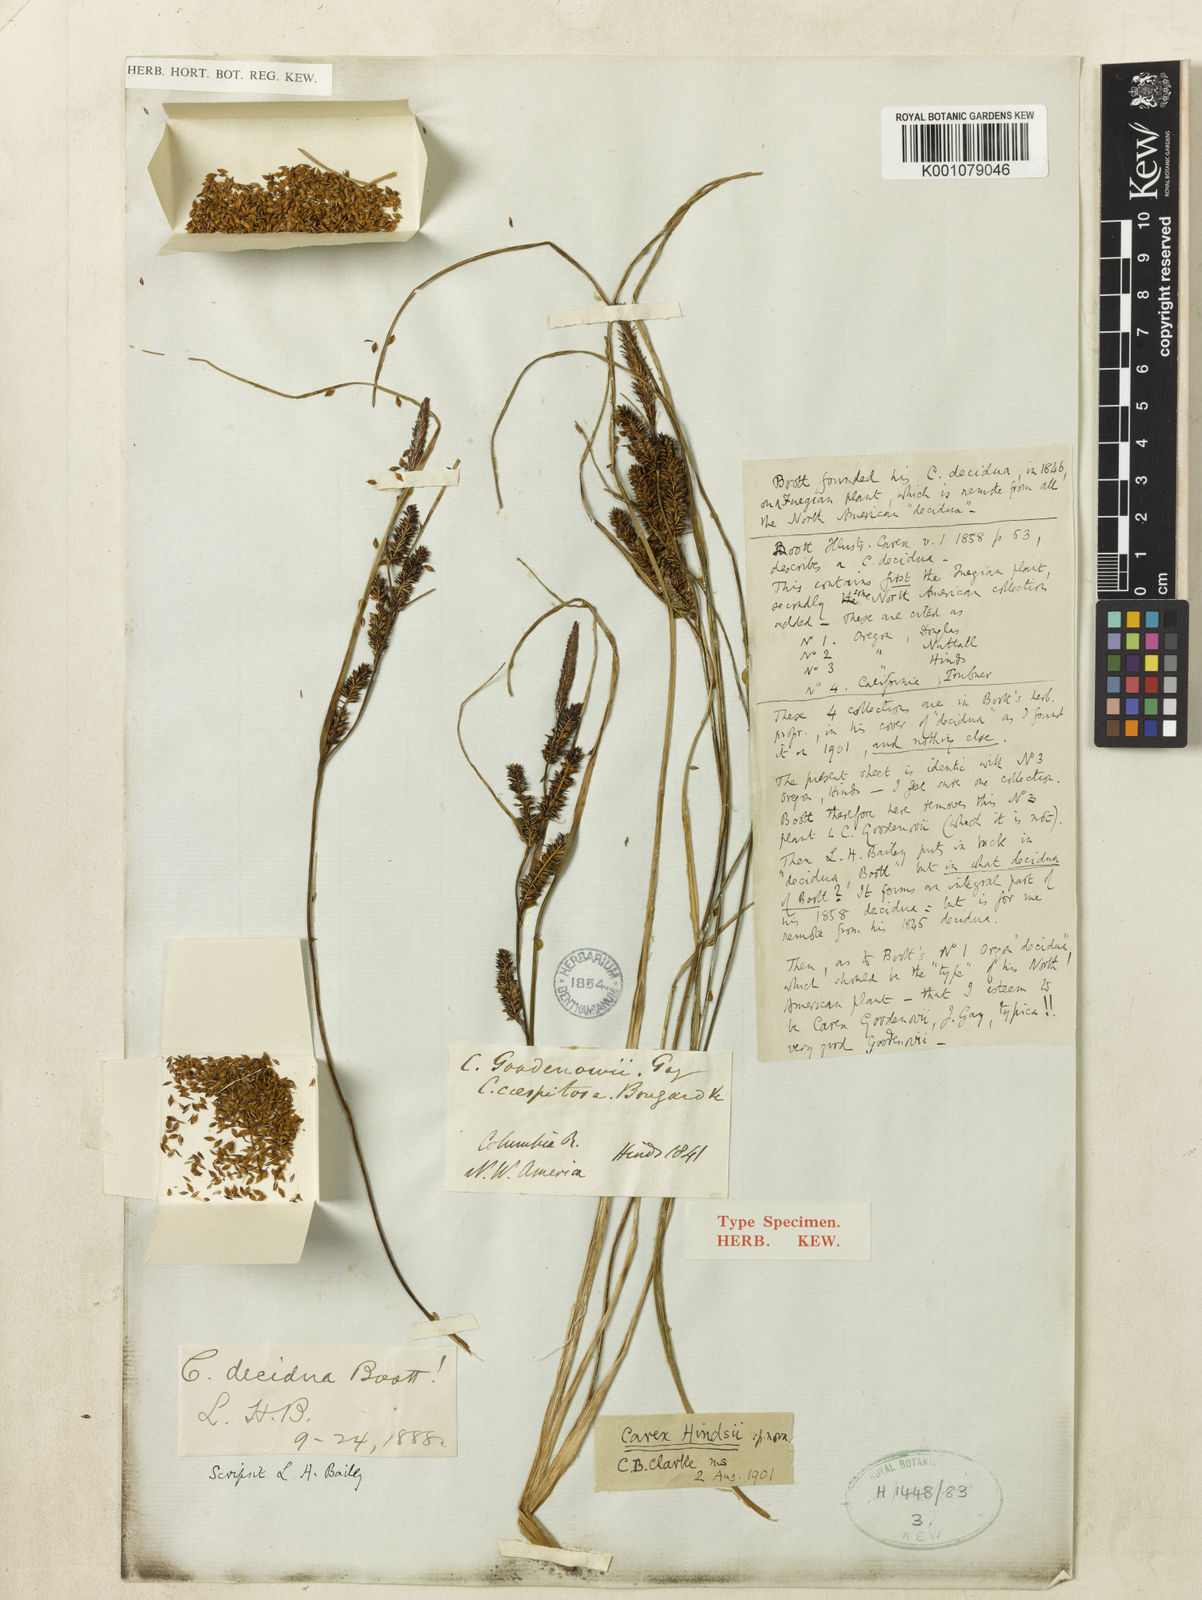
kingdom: Plantae
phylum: Tracheophyta
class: Liliopsida
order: Poales
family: Cyperaceae
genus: Carex
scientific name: Carex kelloggii
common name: Kellogg's sedge
